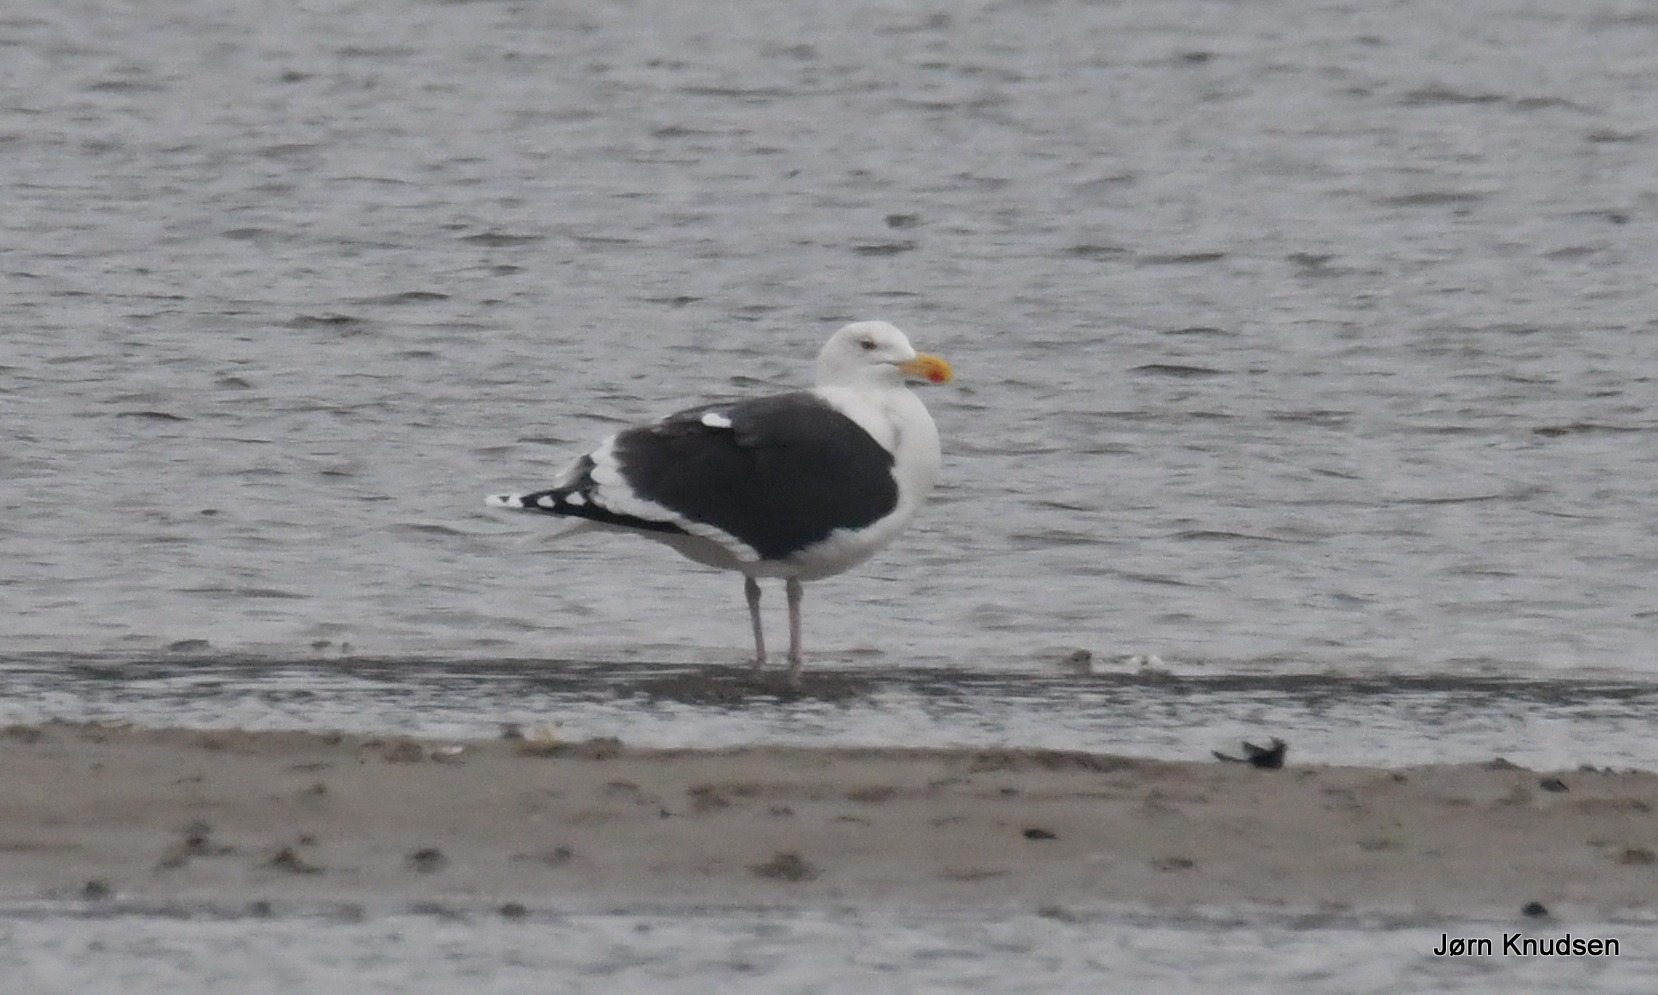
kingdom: Animalia
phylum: Chordata
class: Aves
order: Charadriiformes
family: Laridae
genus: Larus
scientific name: Larus marinus
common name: Svartbag
